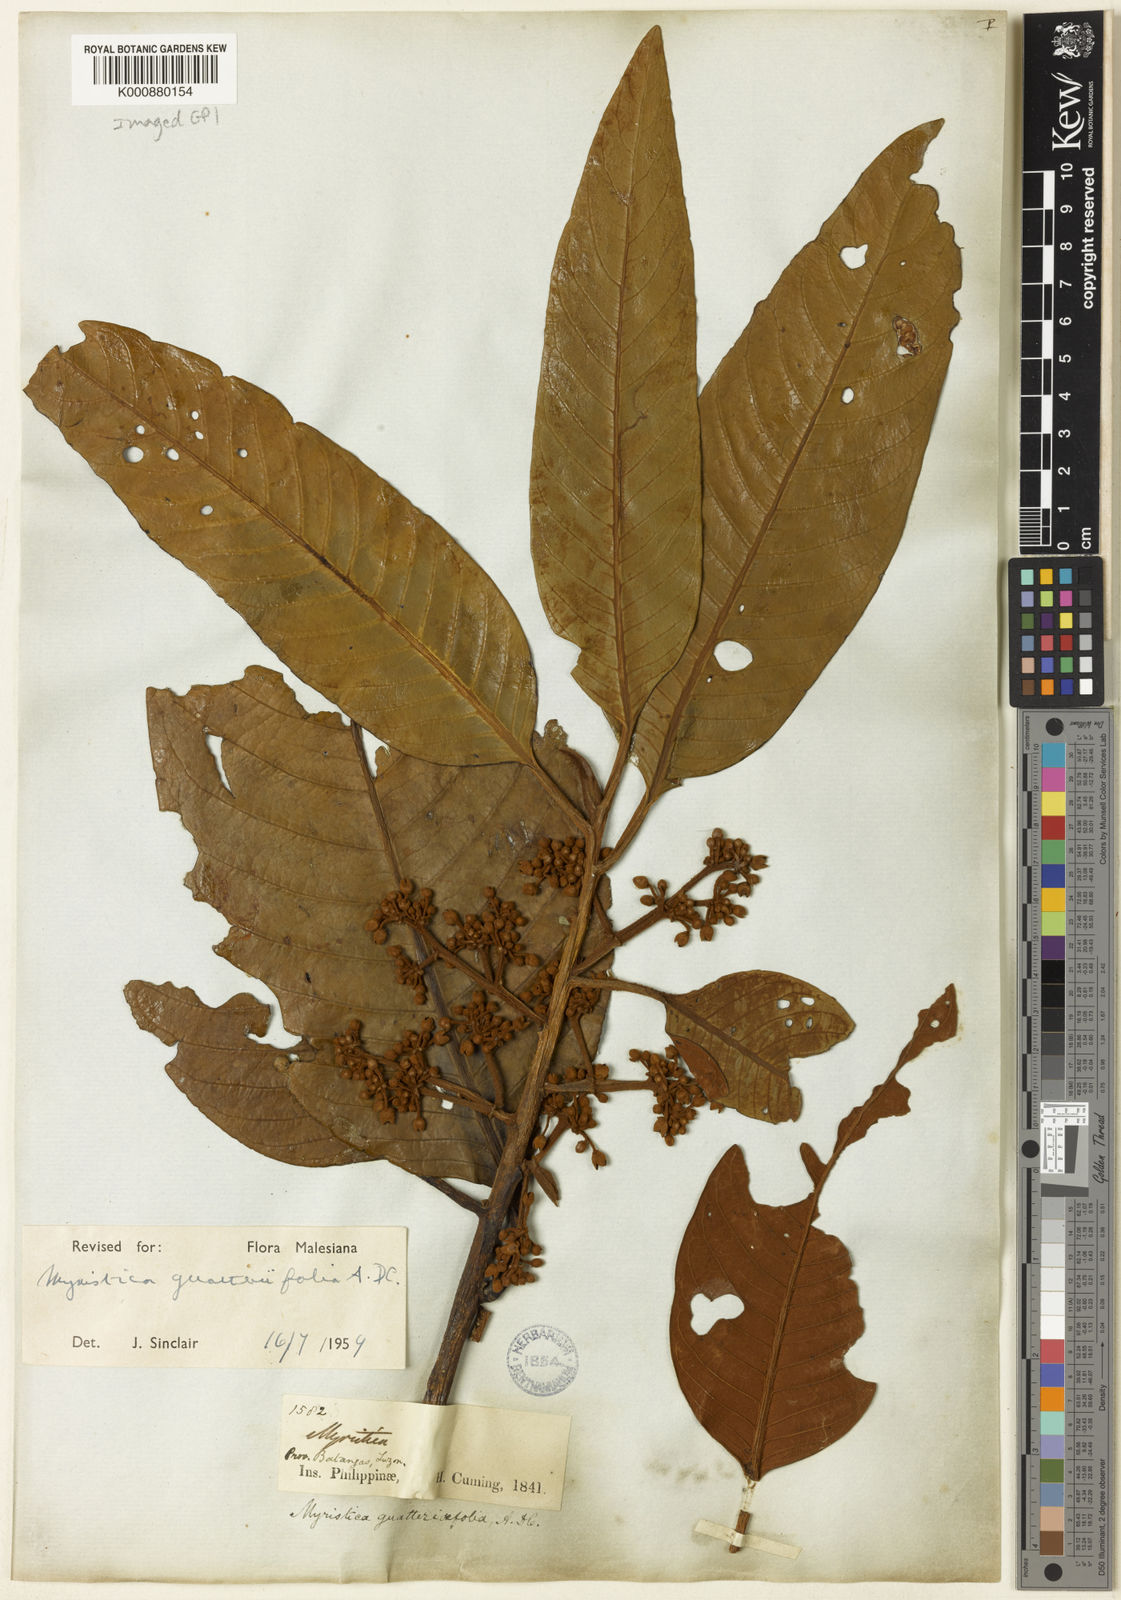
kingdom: Plantae
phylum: Tracheophyta
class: Magnoliopsida
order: Magnoliales
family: Myristicaceae
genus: Myristica
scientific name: Myristica guatteriifolia
